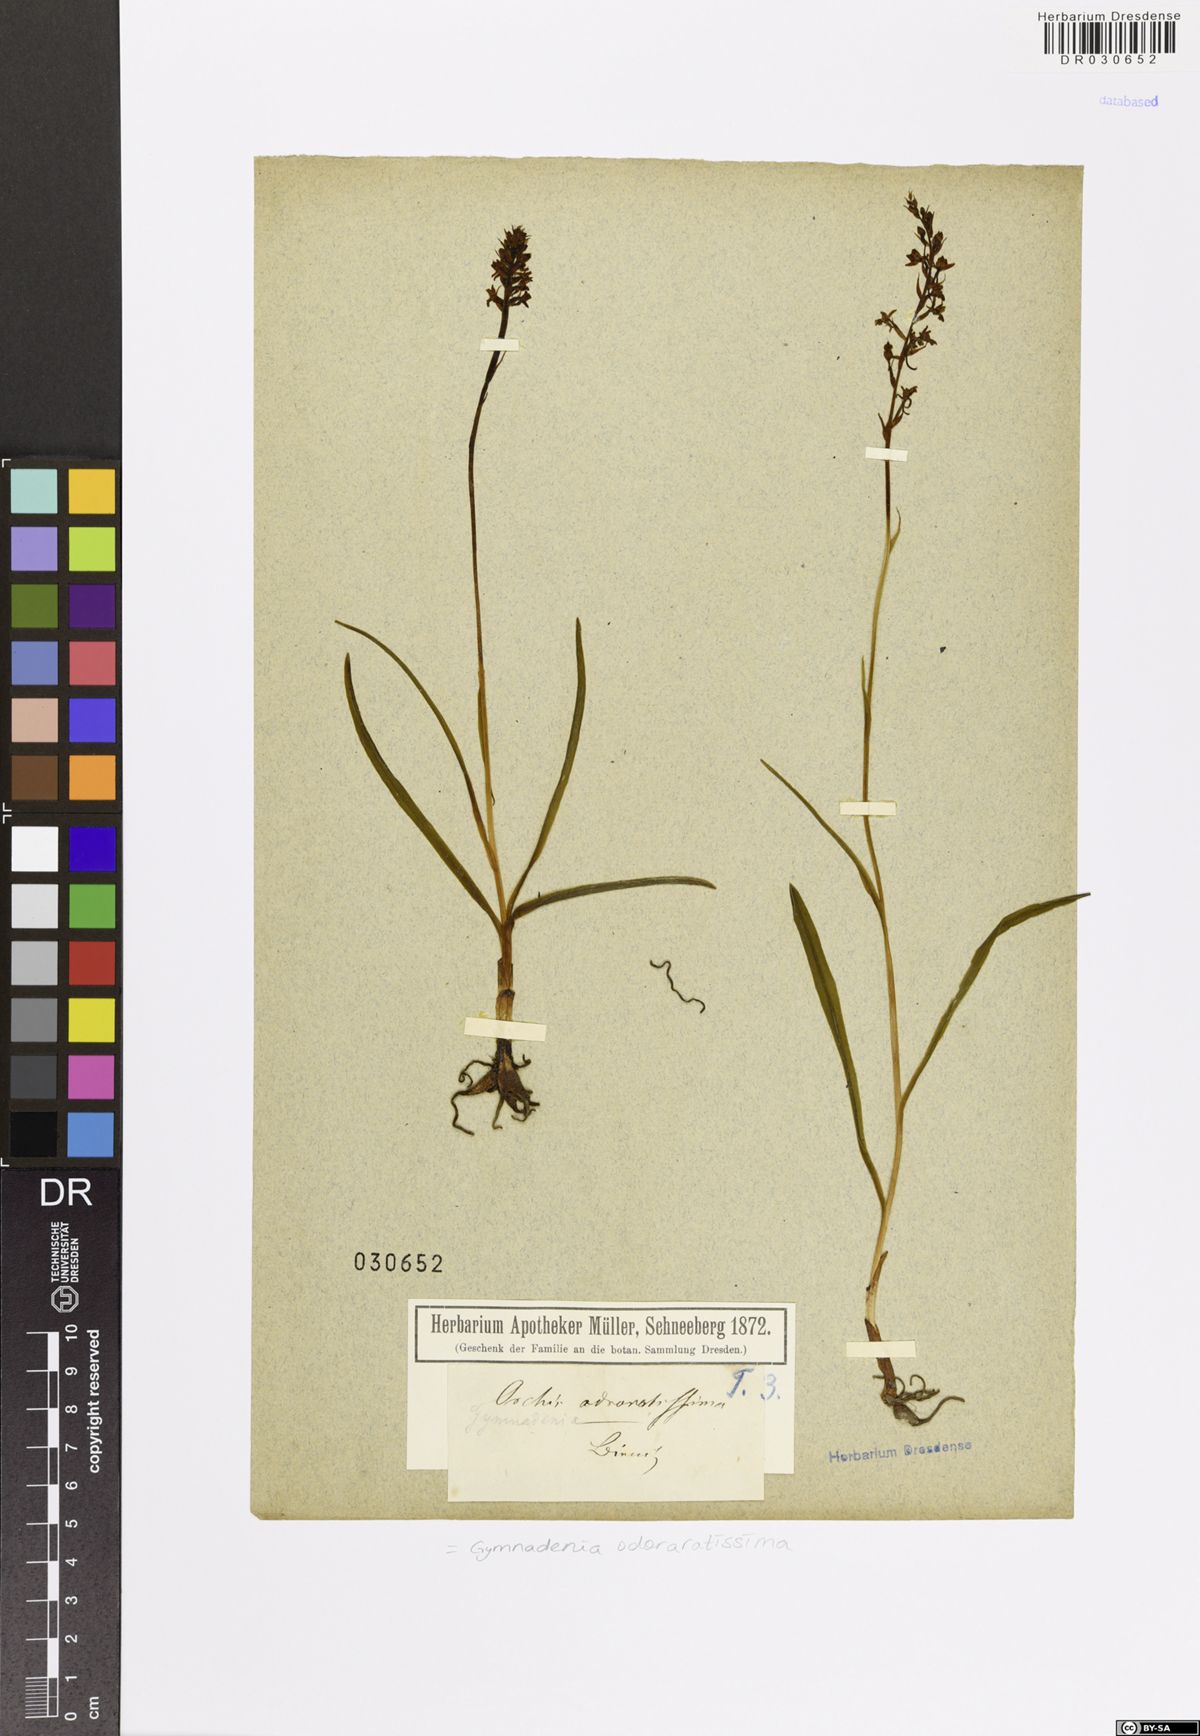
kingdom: Plantae
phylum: Tracheophyta
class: Liliopsida
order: Asparagales
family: Orchidaceae
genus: Gymnadenia
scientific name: Gymnadenia odoratissima
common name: Scented gymnadenia
